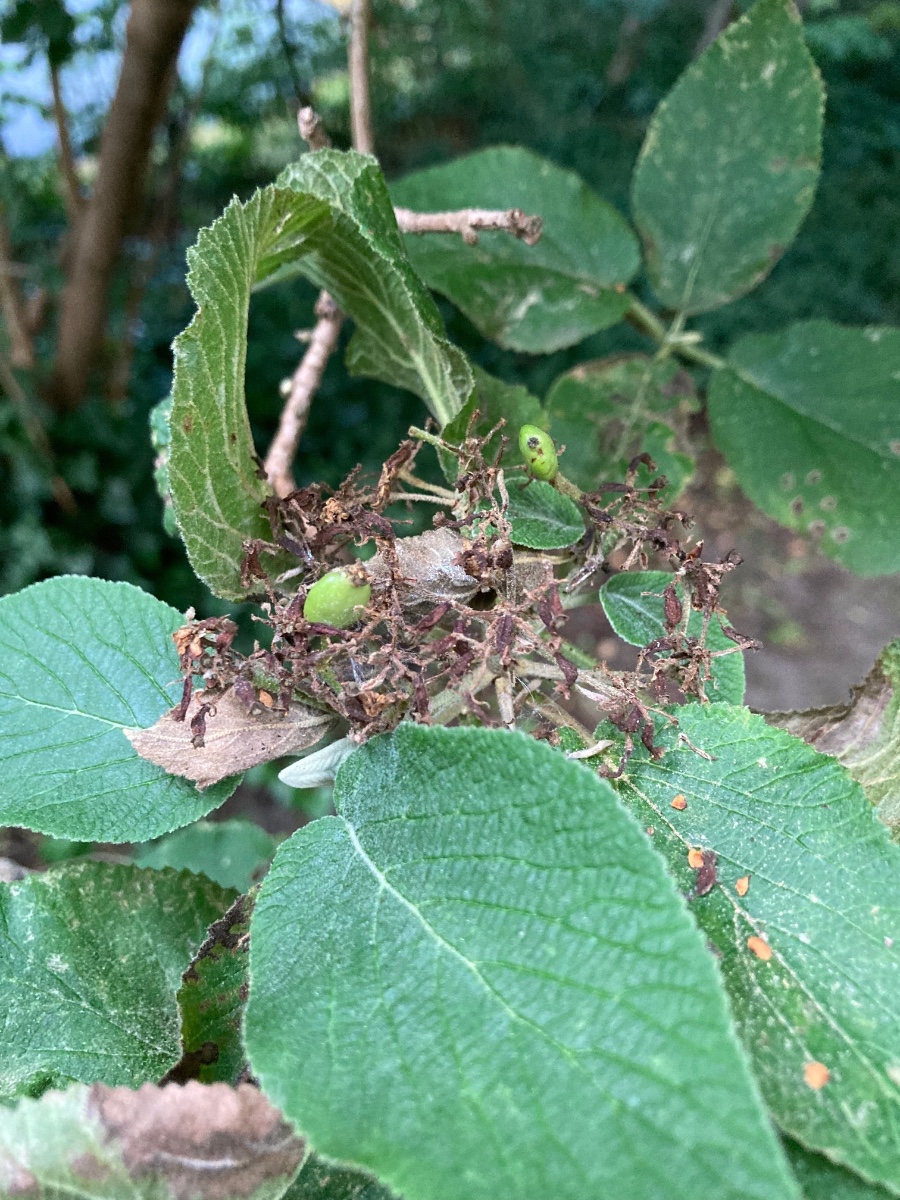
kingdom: Fungi
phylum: Ascomycota
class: Leotiomycetes
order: Helotiales
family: Erysiphaceae
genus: Erysiphe
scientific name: Erysiphe hedwigii
